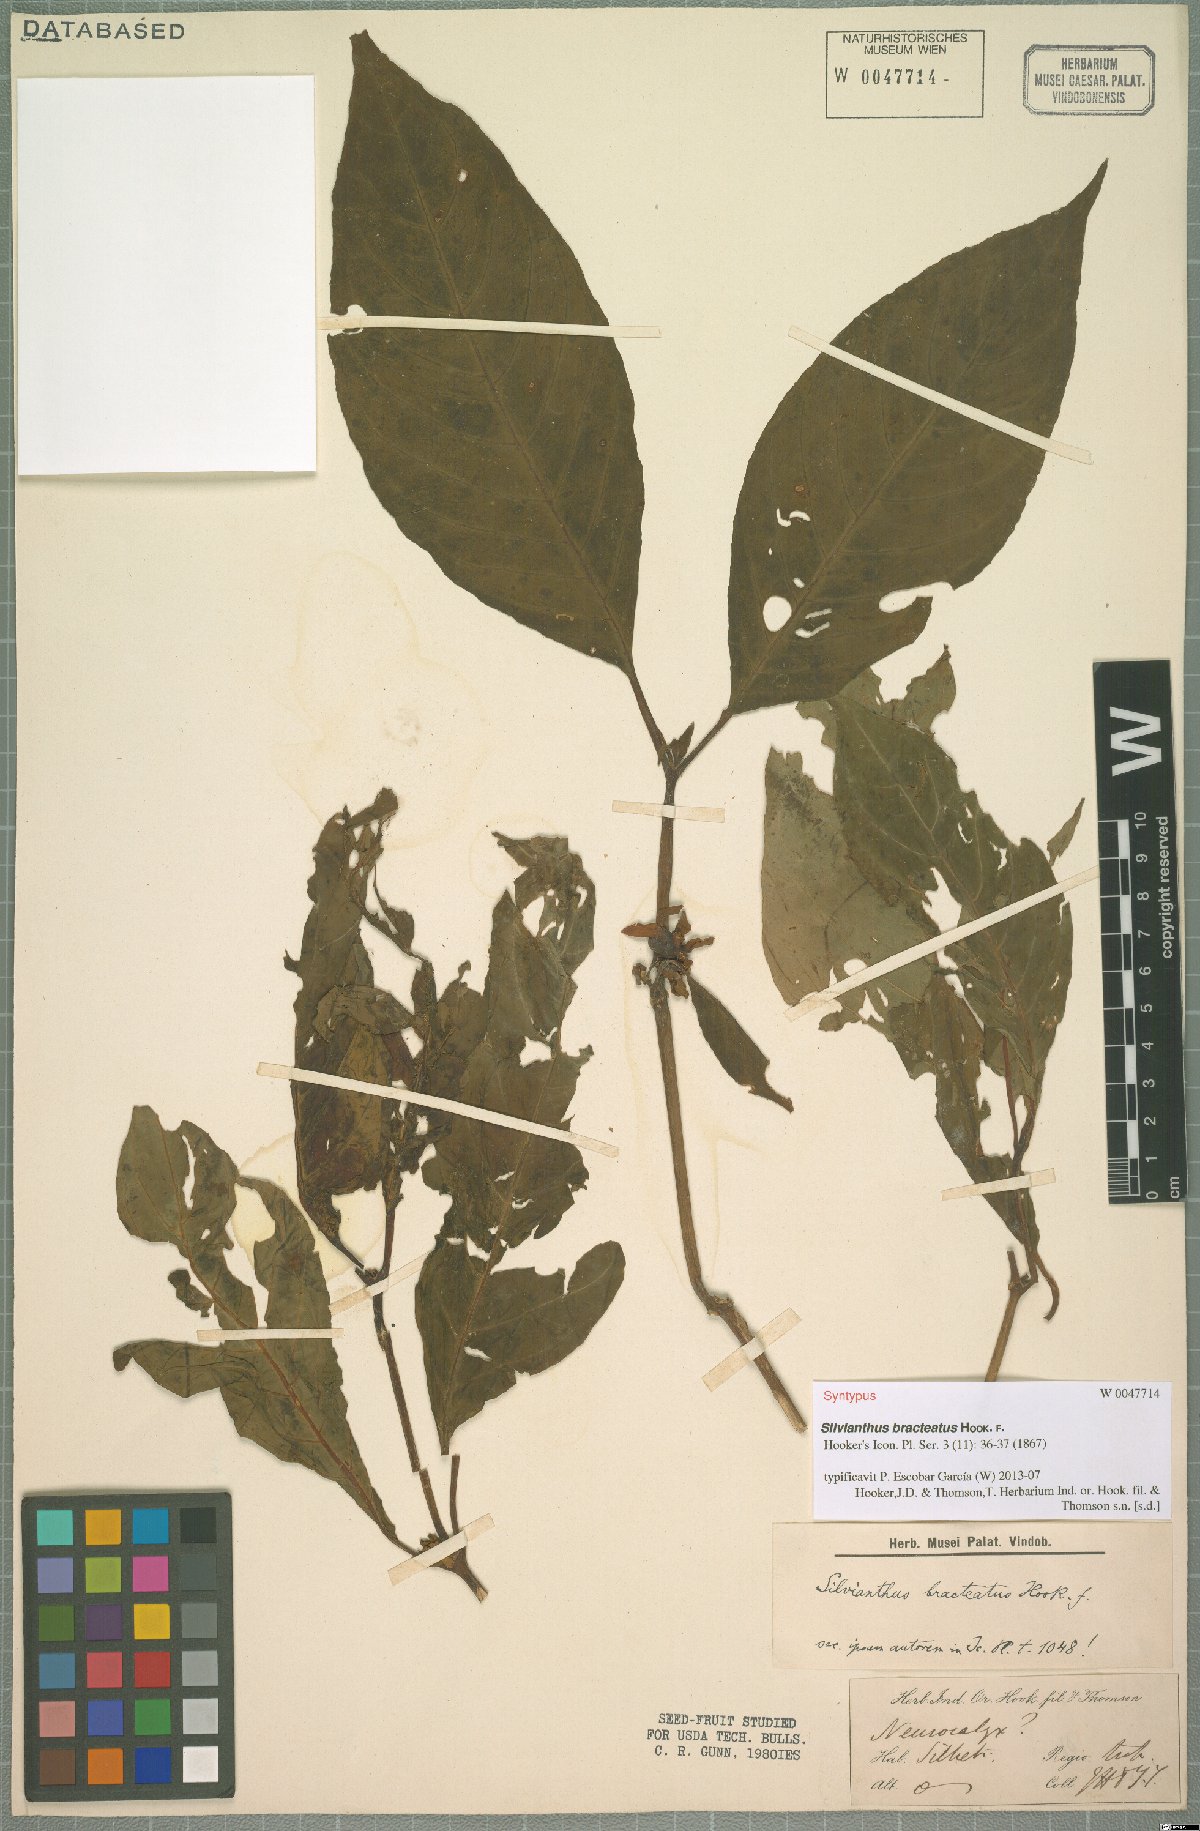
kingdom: Plantae
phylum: Tracheophyta
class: Magnoliopsida
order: Lamiales
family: Carlemanniaceae
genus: Silvianthus
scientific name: Silvianthus bracteatus
